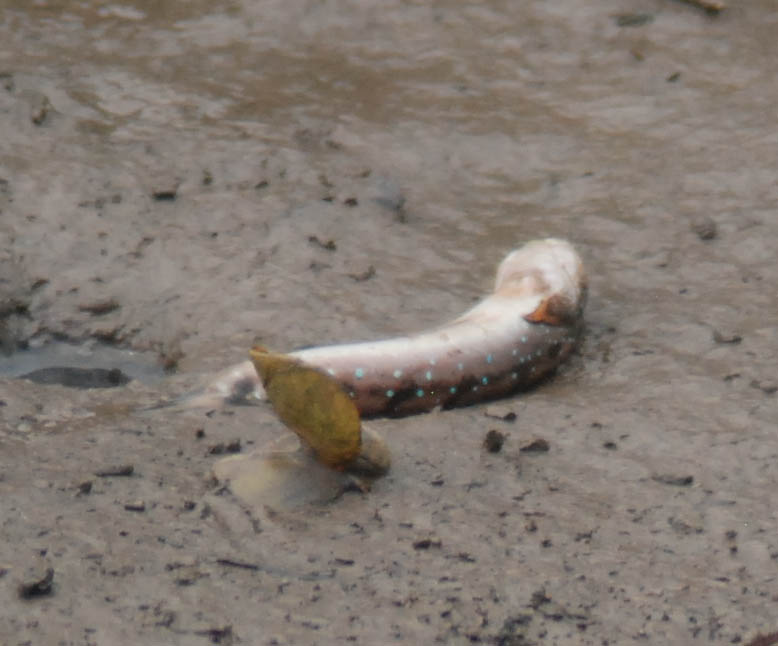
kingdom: Animalia
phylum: Chordata
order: Perciformes
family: Gobiidae
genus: Boleophthalmus
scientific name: Boleophthalmus boddarti
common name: Boddart's goggle-eyed goby
